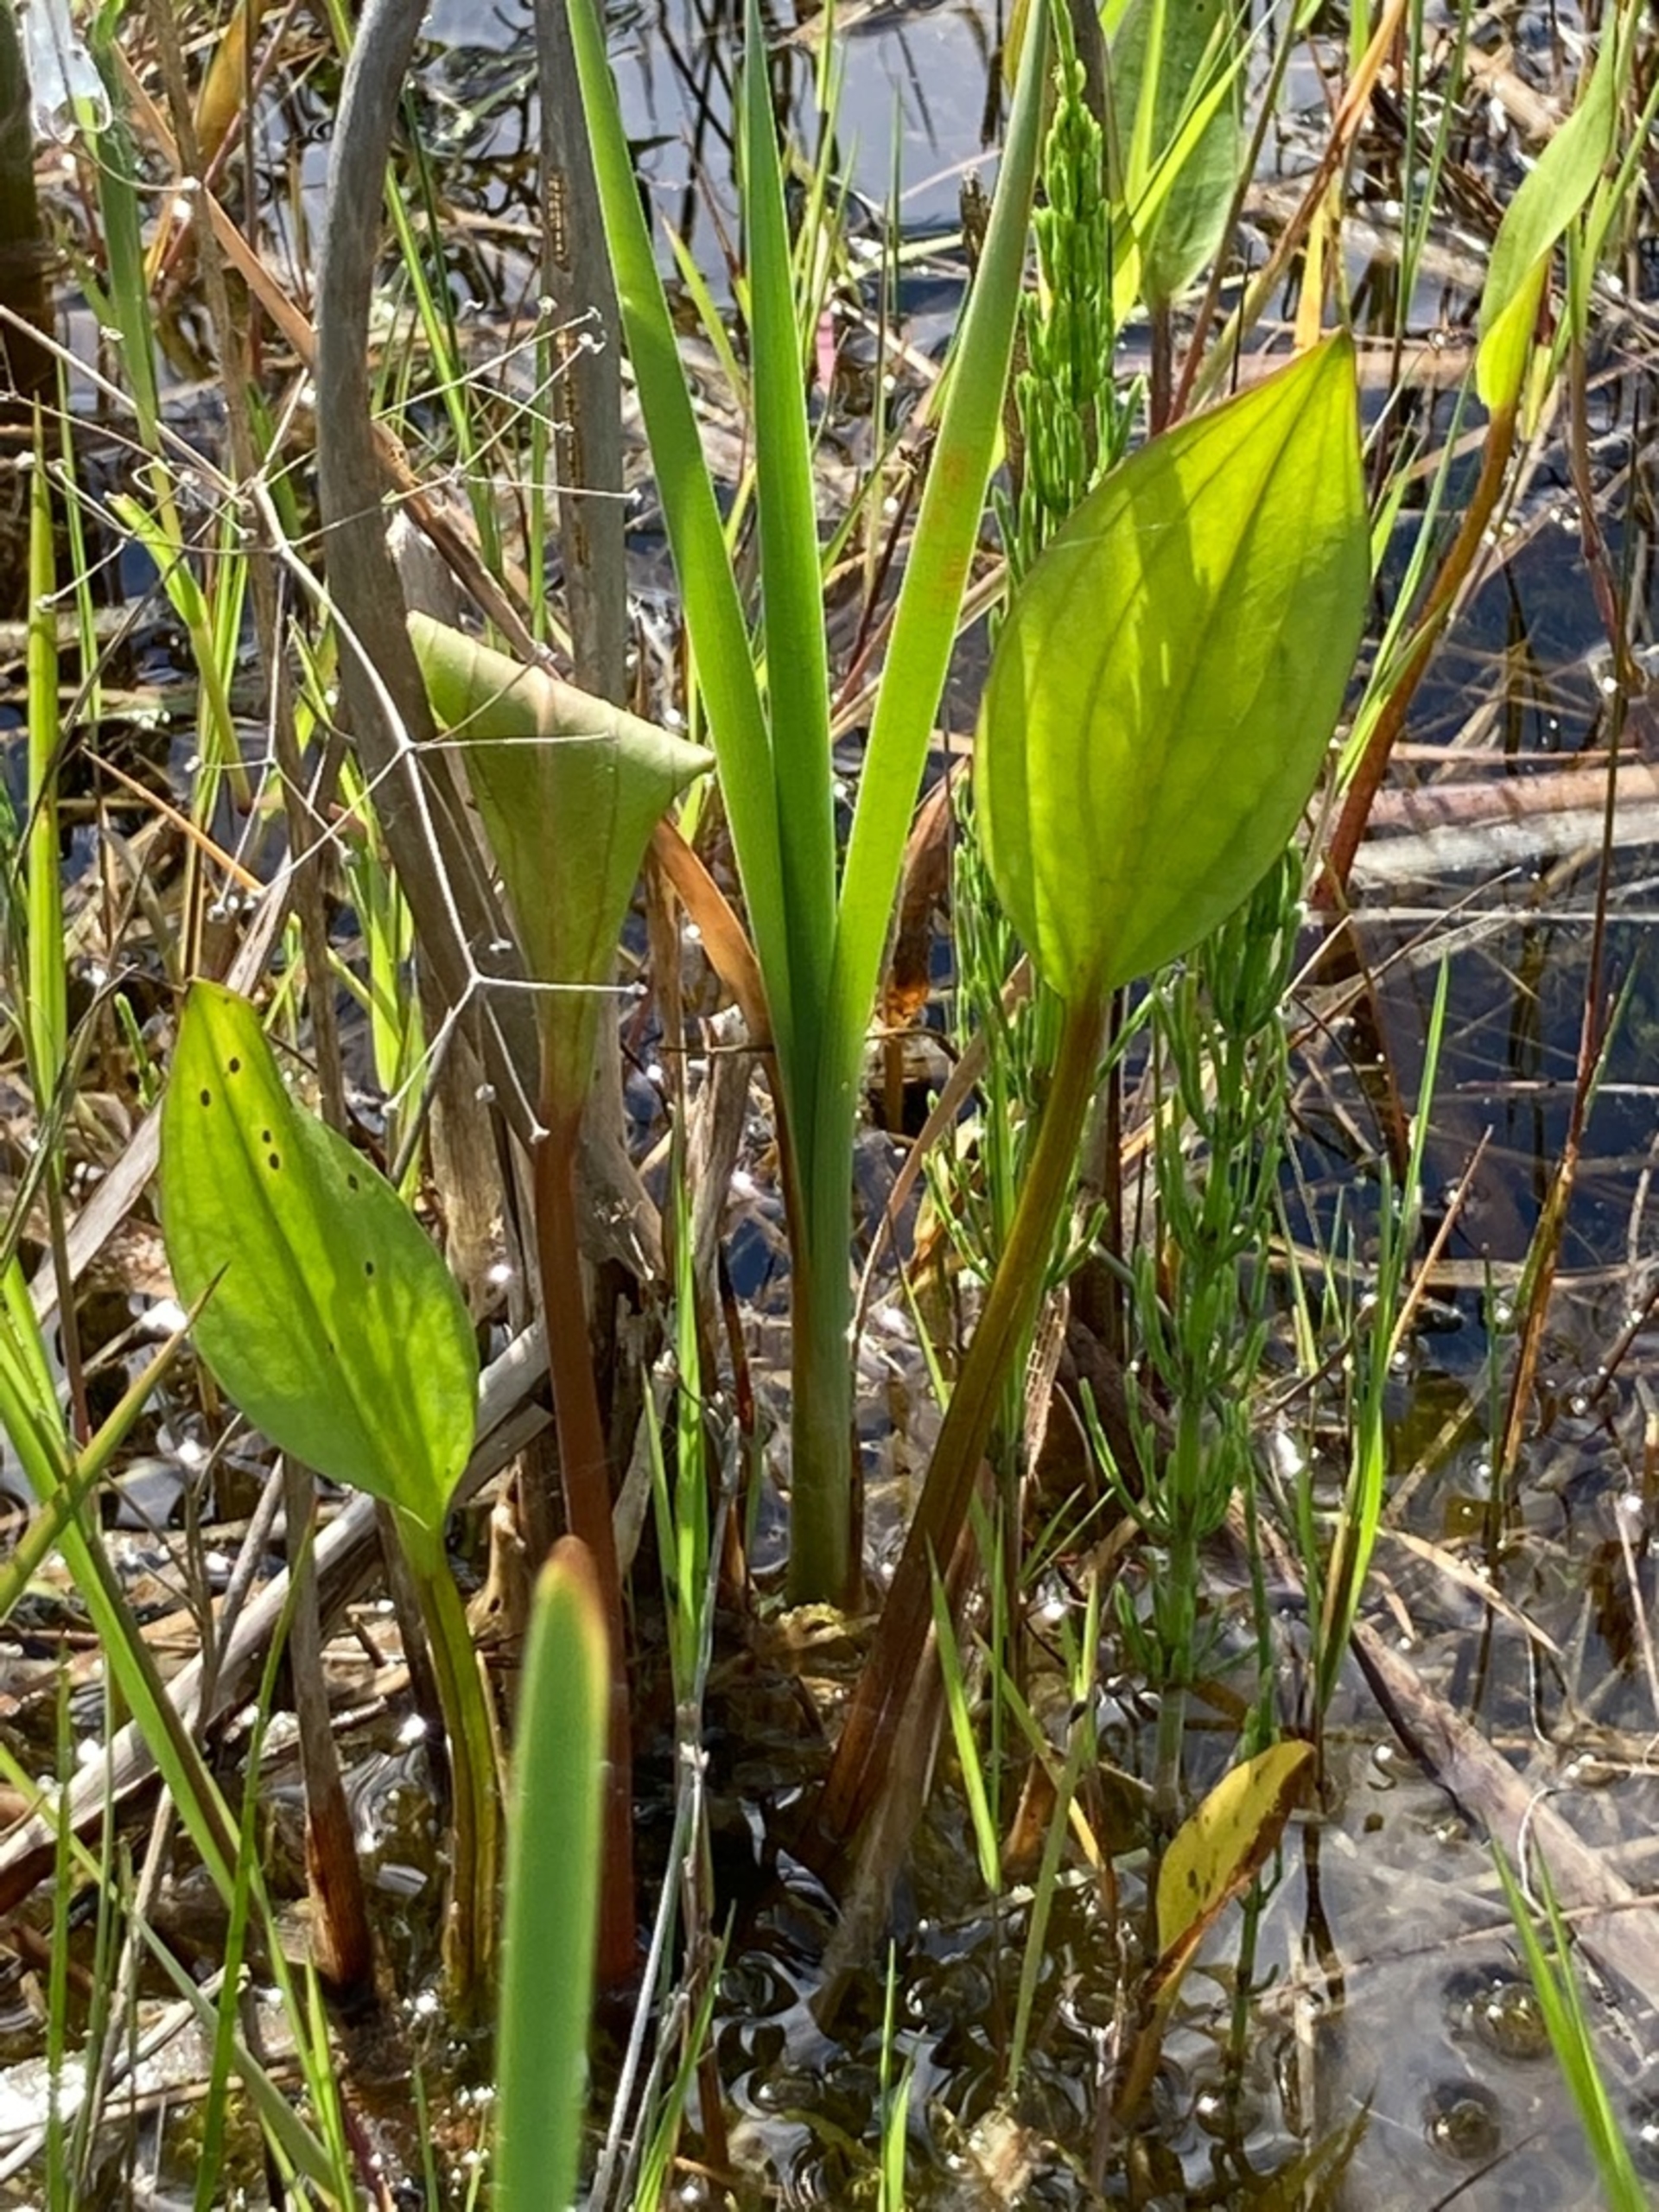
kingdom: Plantae
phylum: Tracheophyta
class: Liliopsida
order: Alismatales
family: Alismataceae
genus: Alisma
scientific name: Alisma plantago-aquatica
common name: Vejbred-skeblad
